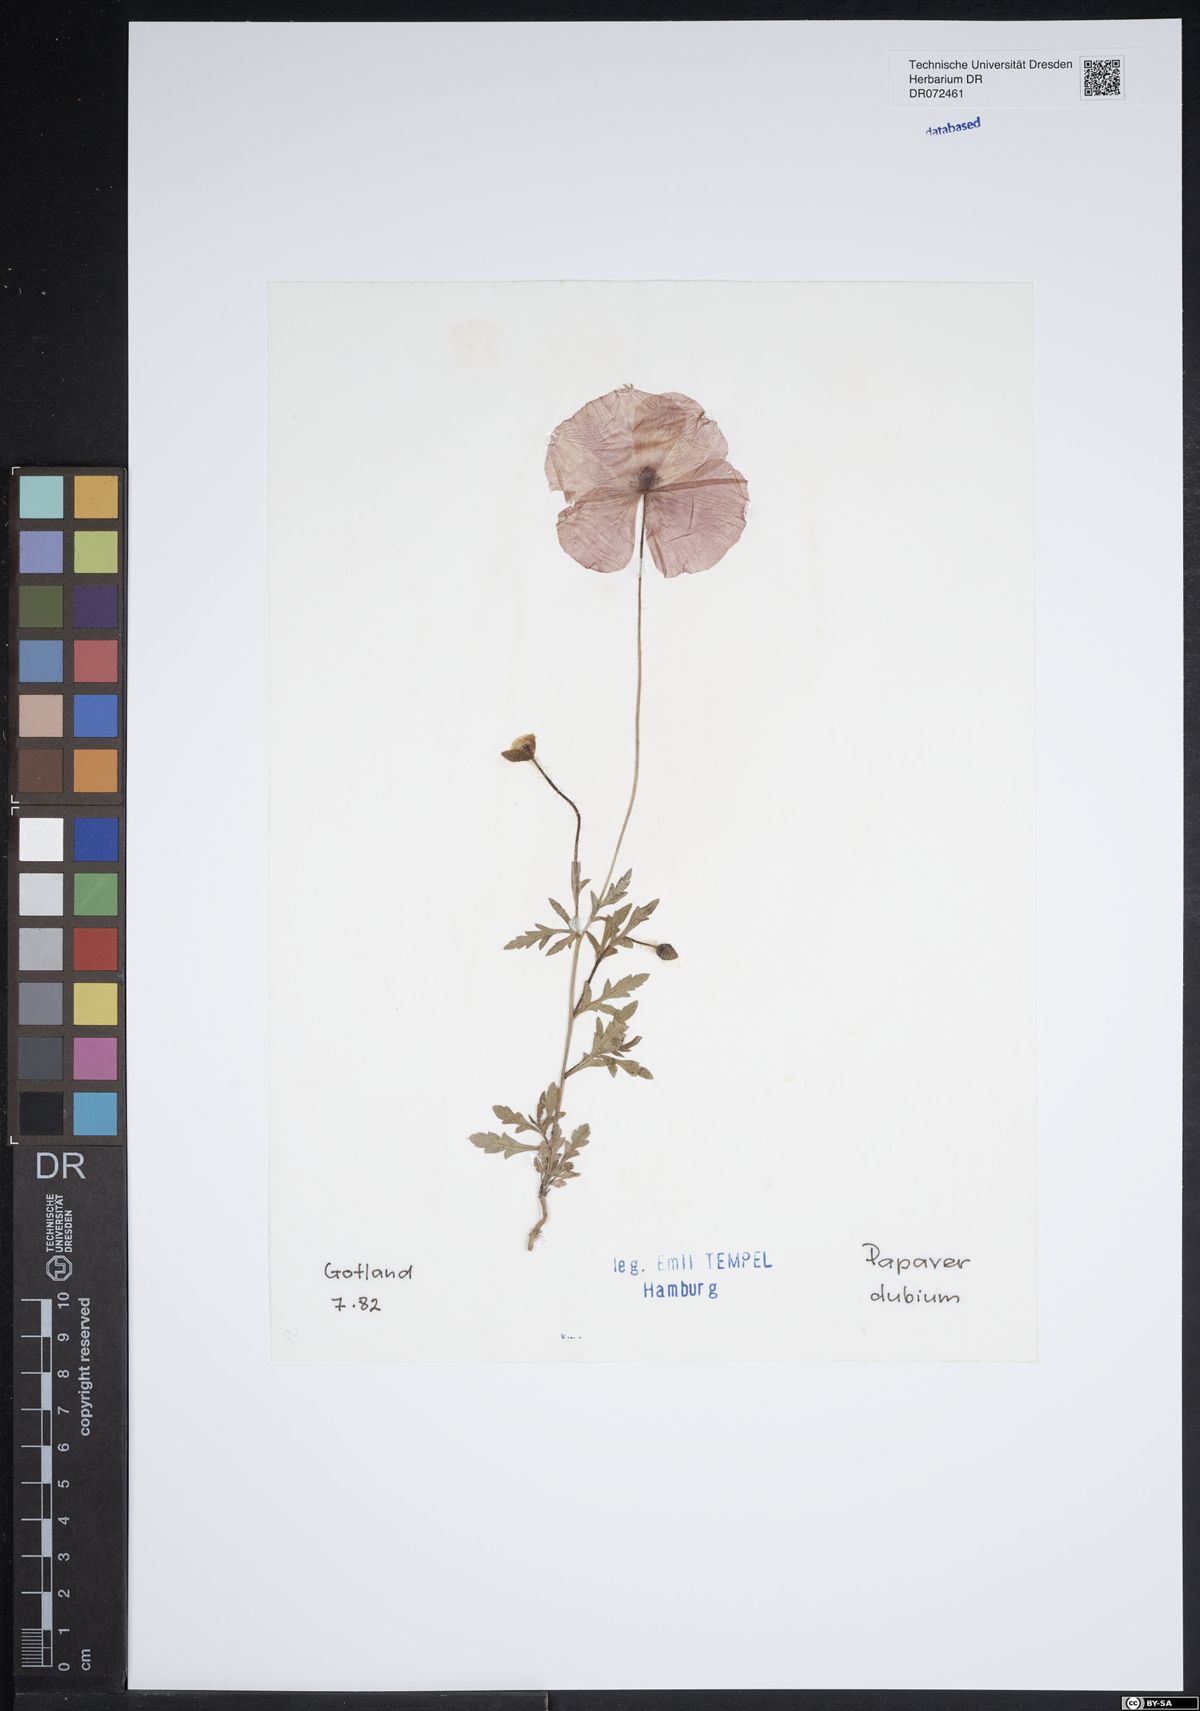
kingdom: Plantae
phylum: Tracheophyta
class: Magnoliopsida
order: Ranunculales
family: Papaveraceae
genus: Papaver
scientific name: Papaver dubium
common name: Long-headed poppy
